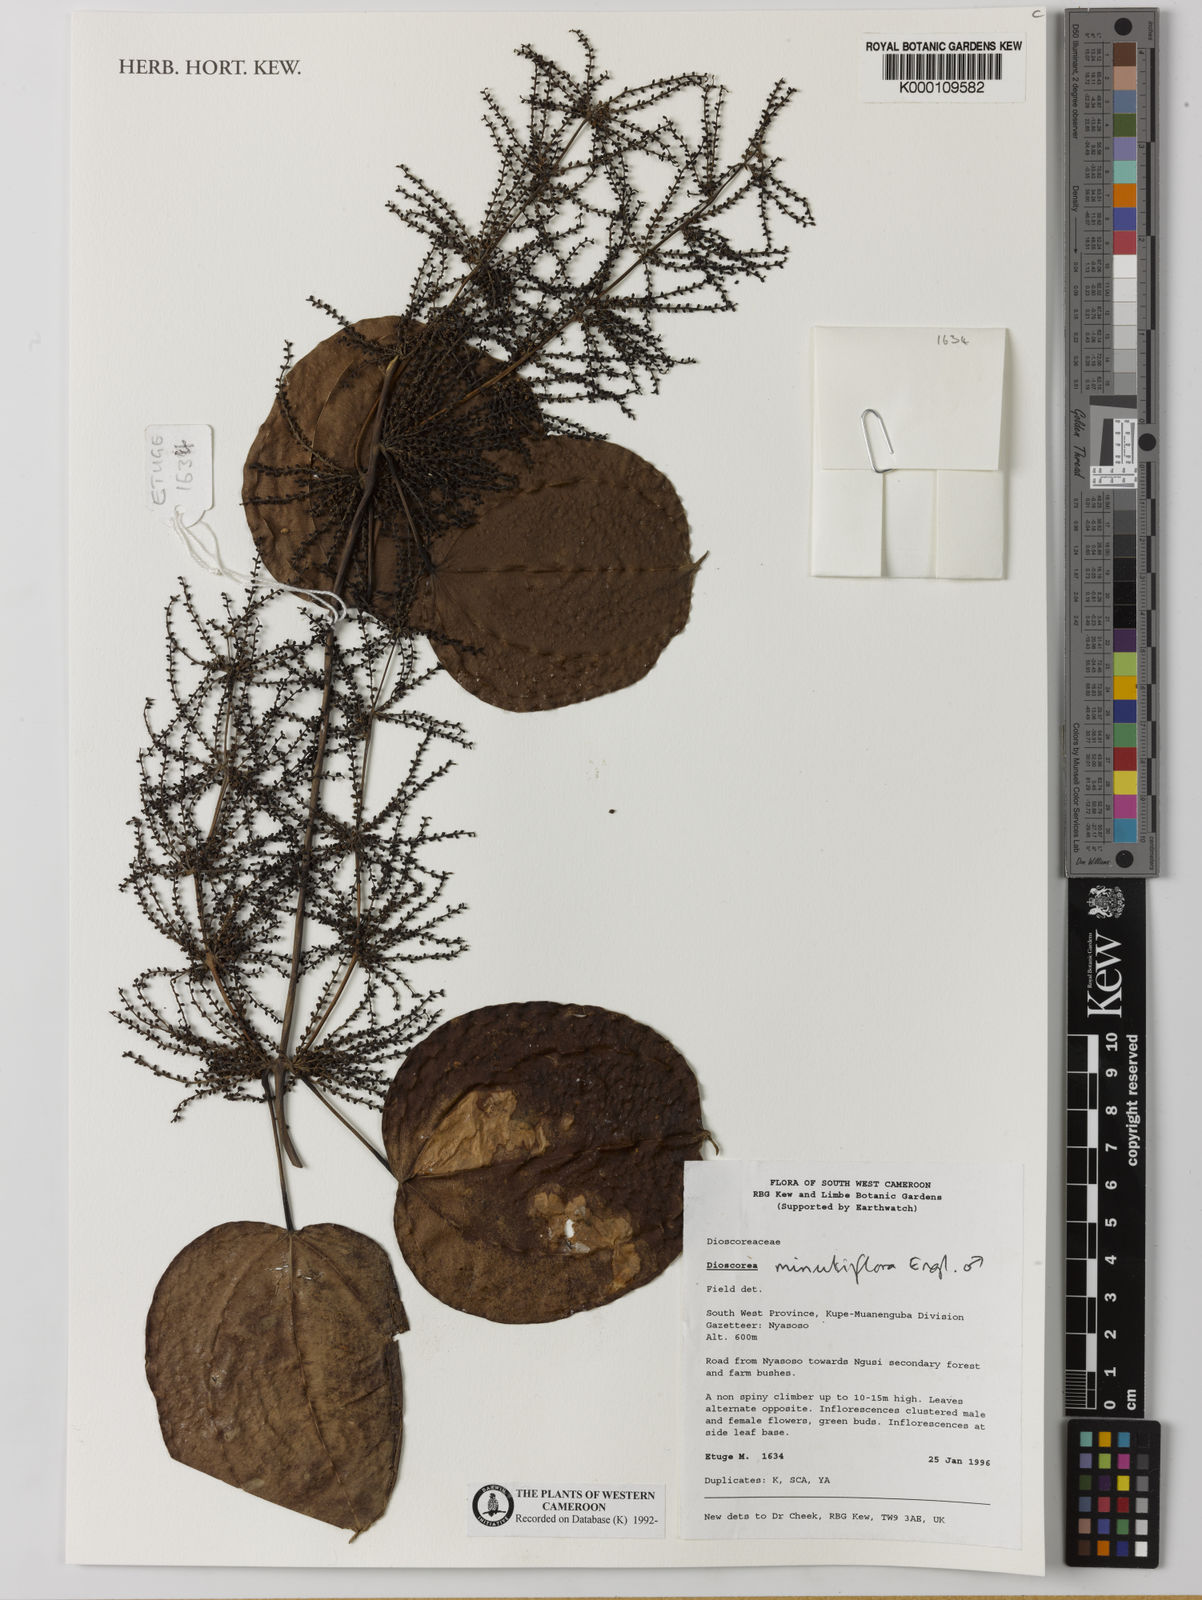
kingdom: Plantae
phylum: Tracheophyta
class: Liliopsida
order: Dioscoreales
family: Dioscoreaceae
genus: Dioscorea
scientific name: Dioscorea minutiflora
